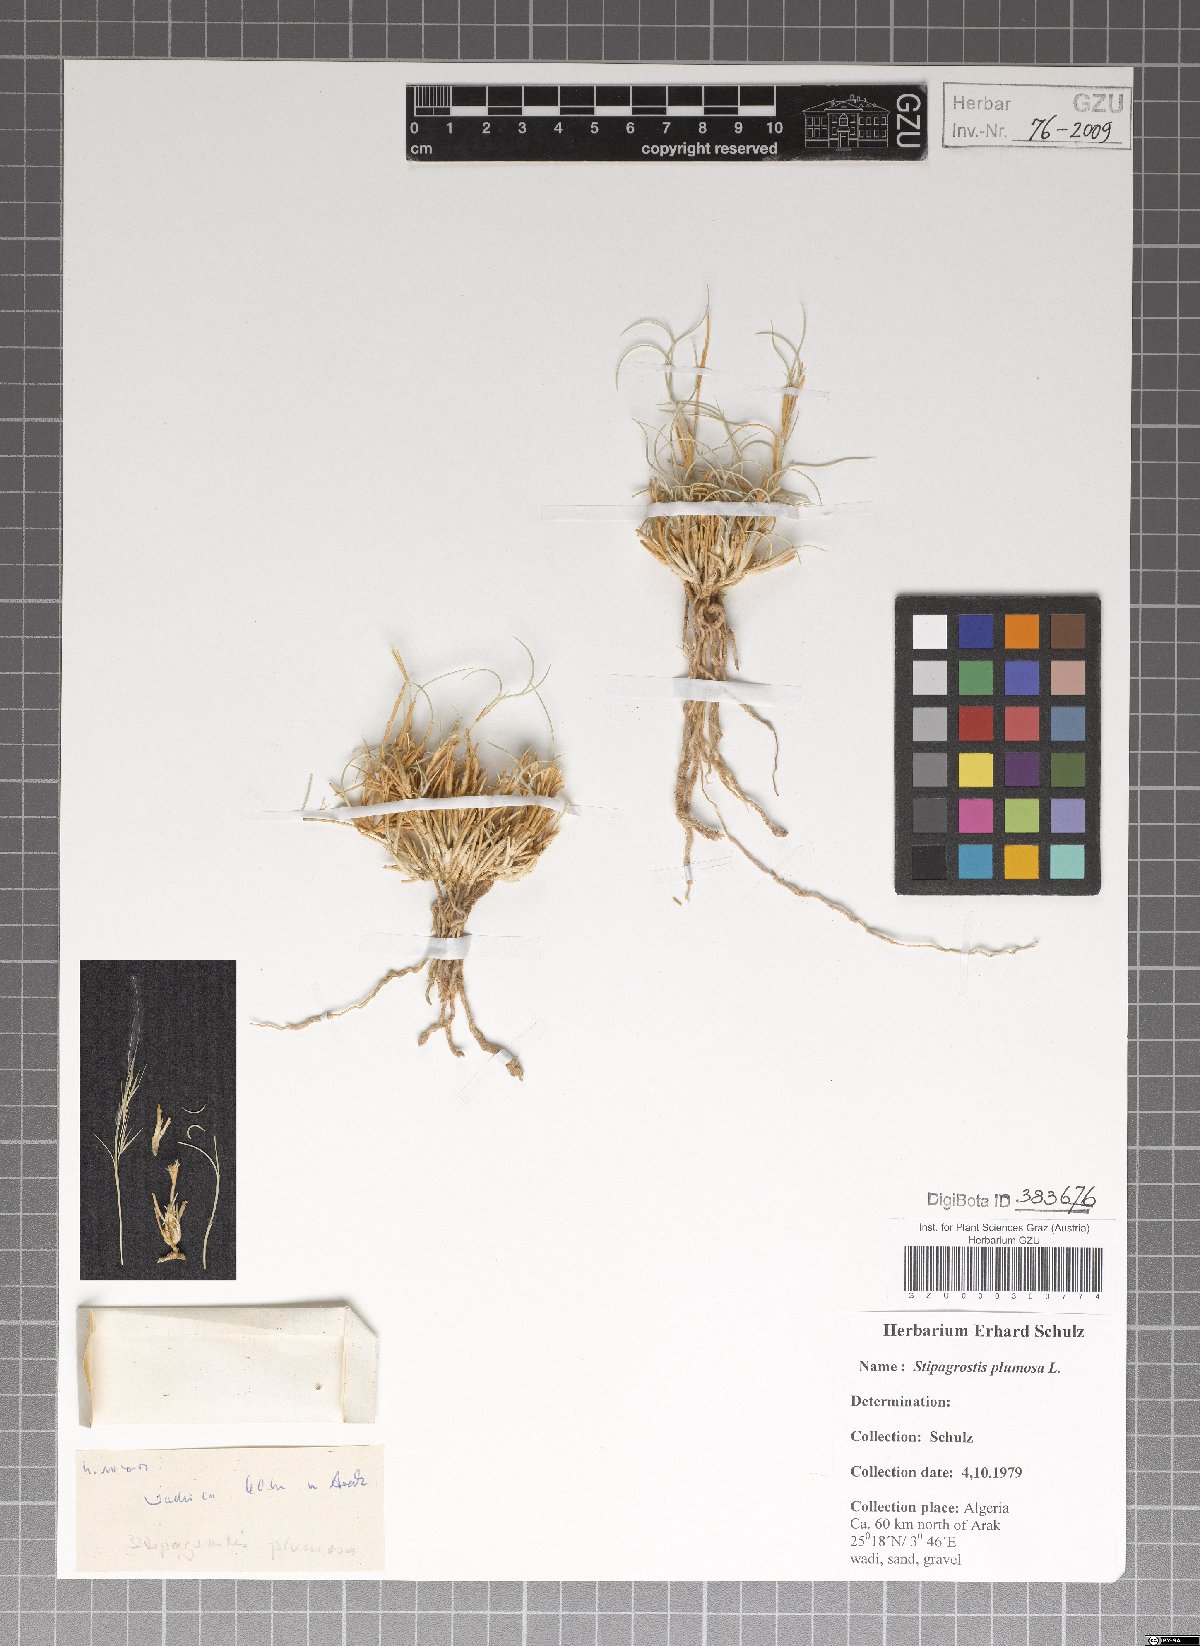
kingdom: Plantae
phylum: Tracheophyta
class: Liliopsida
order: Poales
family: Poaceae
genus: Stipagrostis
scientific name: Stipagrostis plumosa
